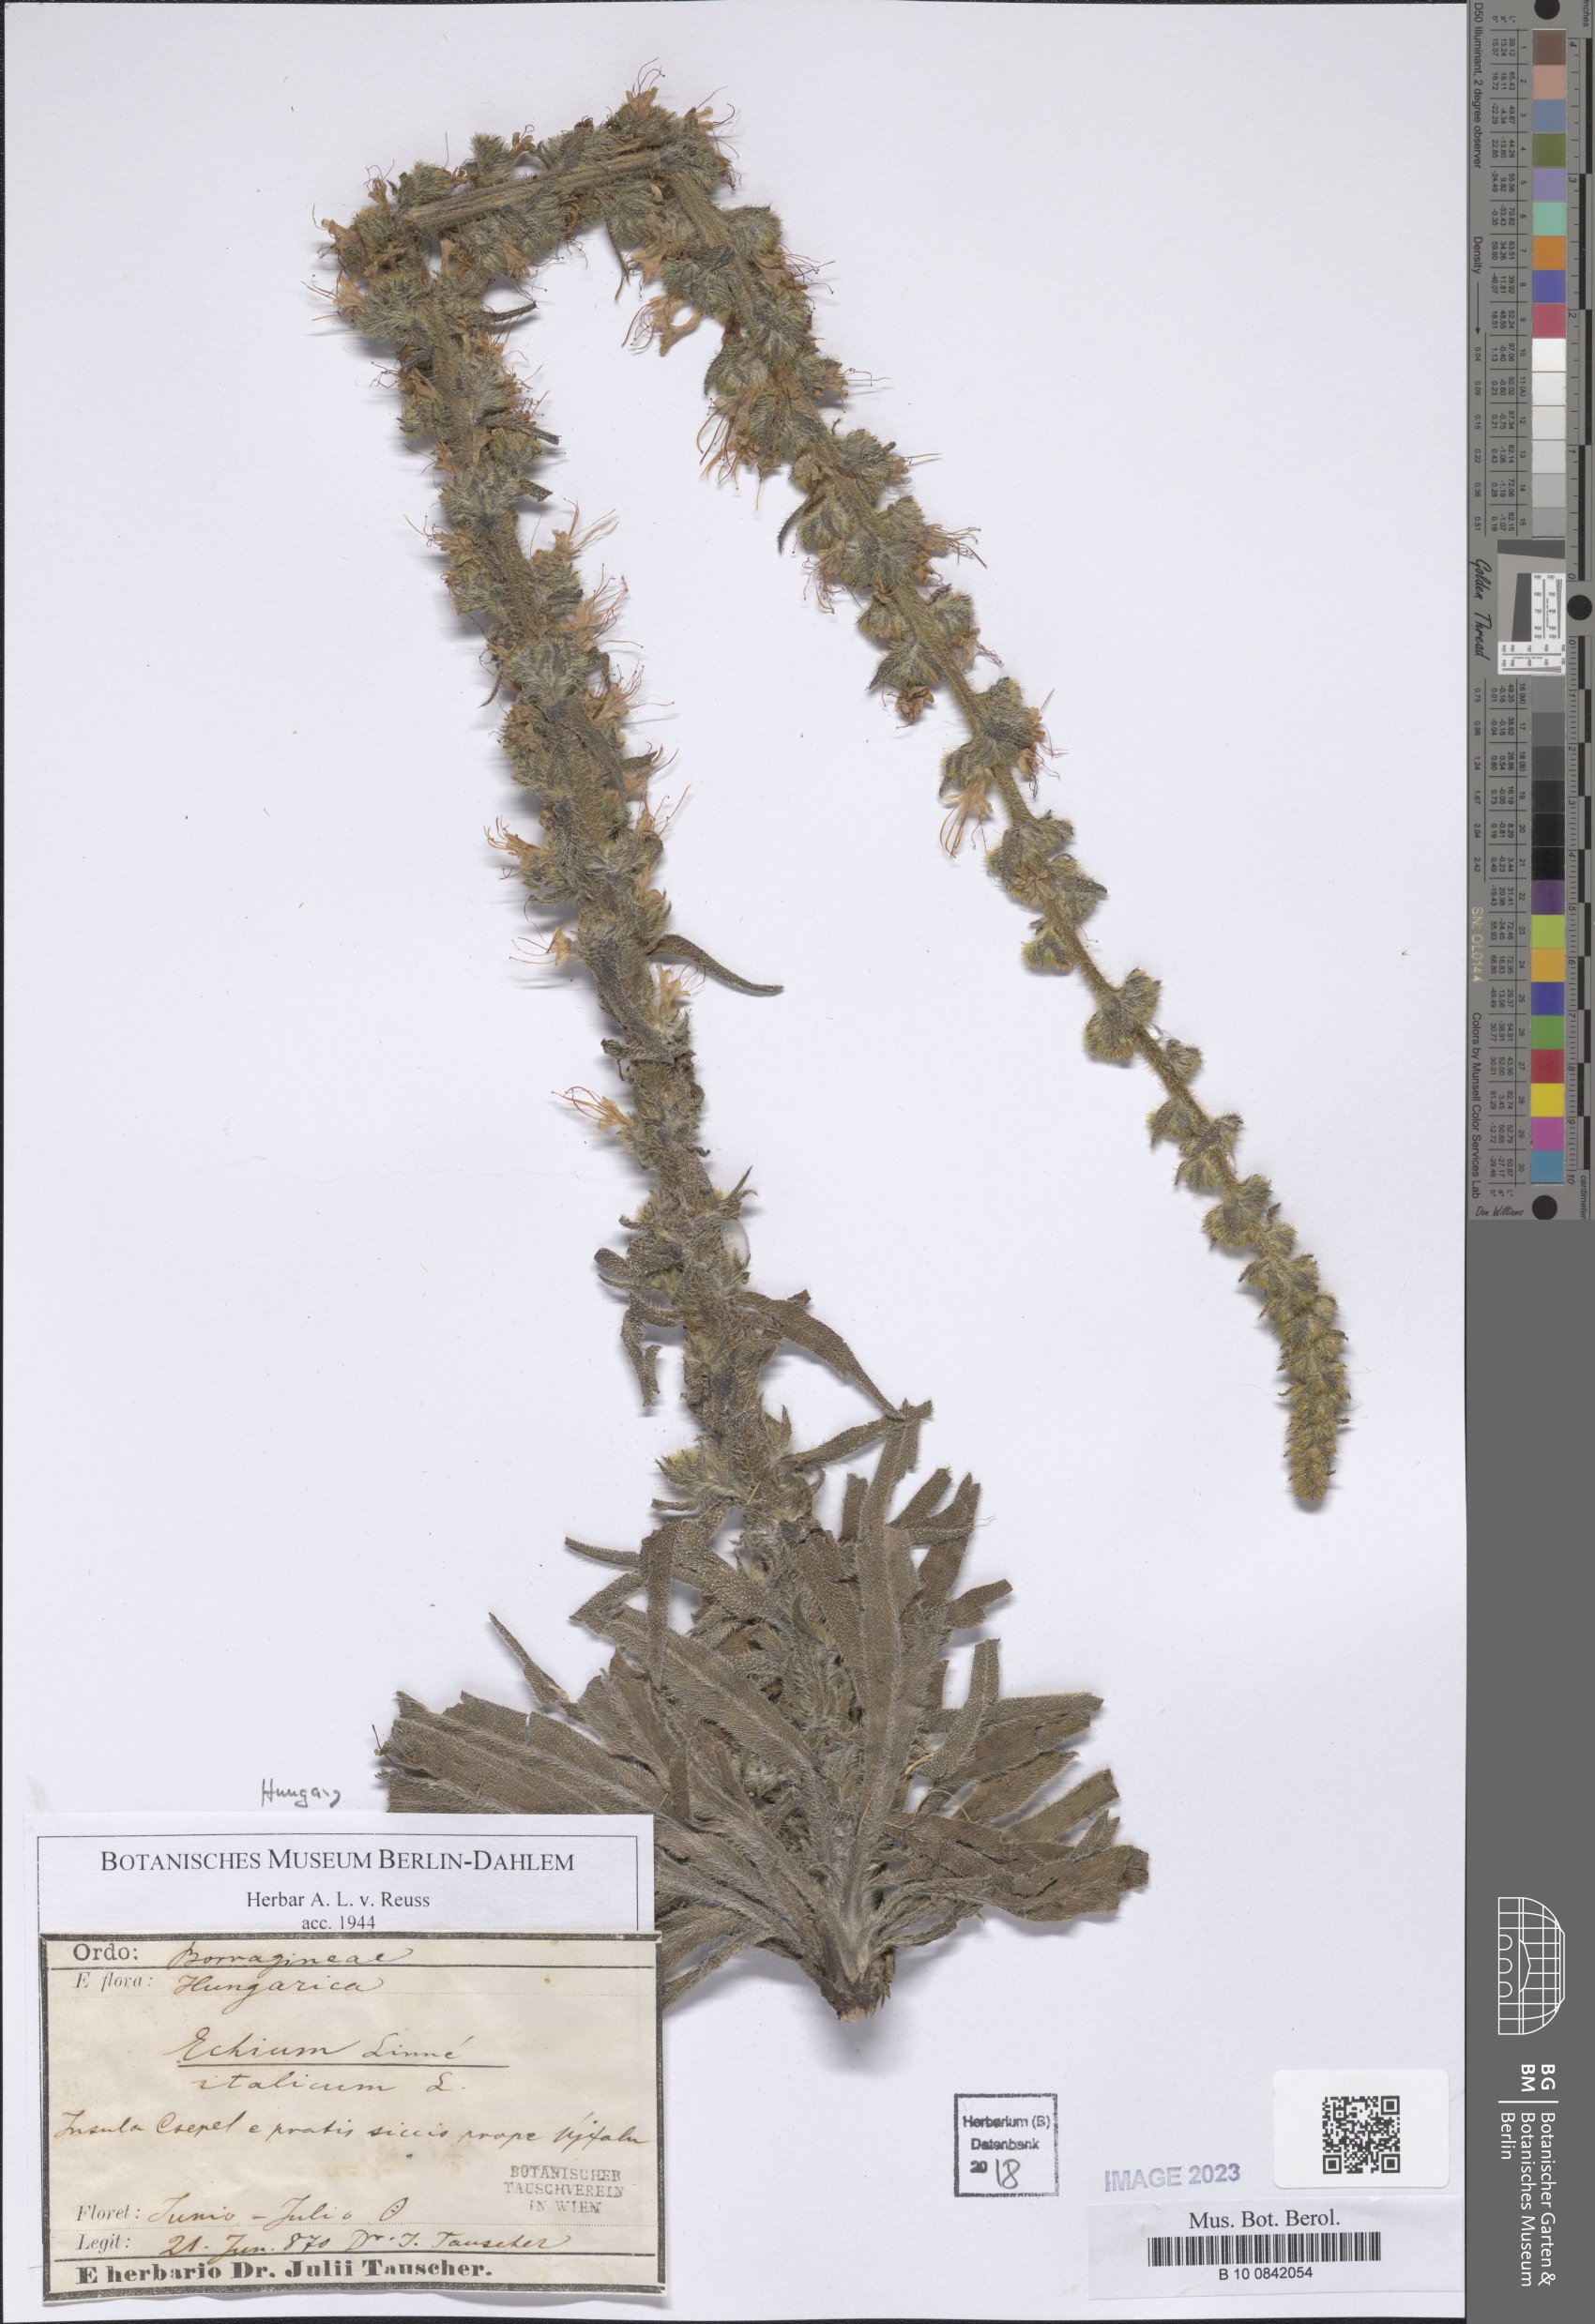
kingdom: Plantae
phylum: Tracheophyta
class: Magnoliopsida
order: Boraginales
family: Boraginaceae
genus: Echium
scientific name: Echium italicum
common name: Italian viper's bugloss
